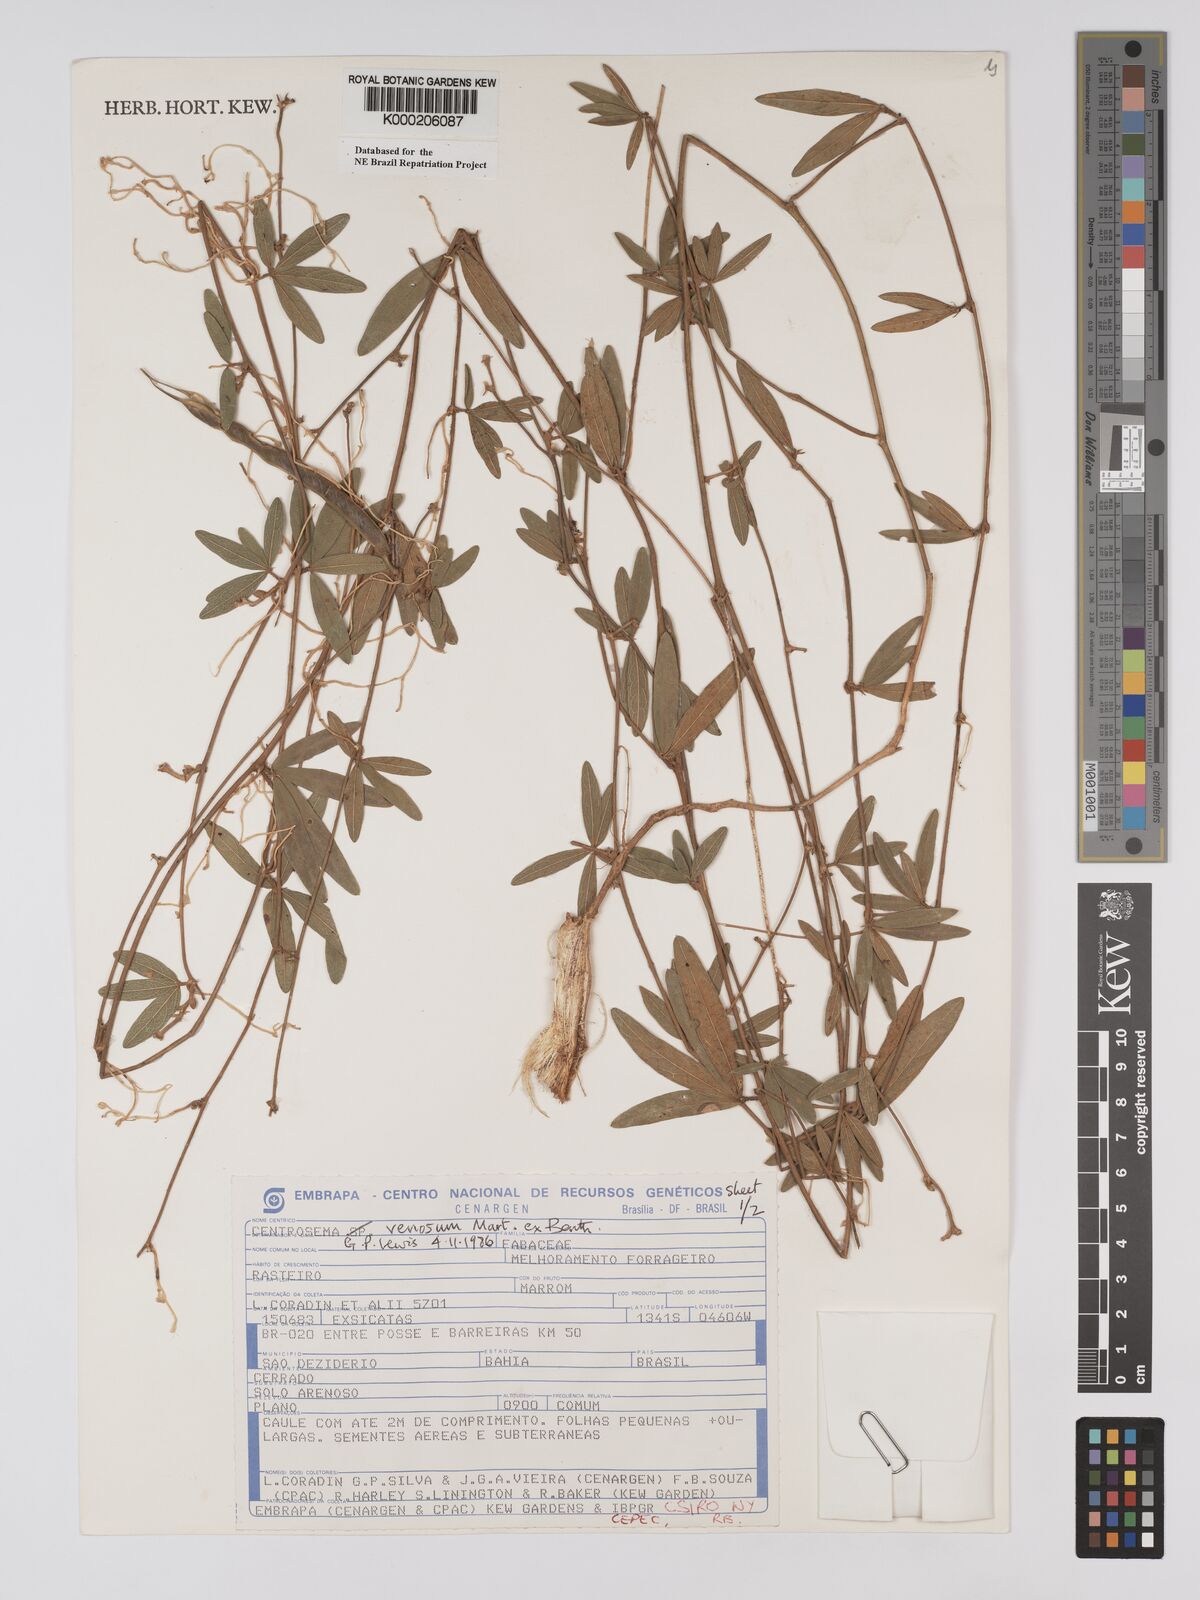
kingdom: Plantae
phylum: Tracheophyta
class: Magnoliopsida
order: Fabales
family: Fabaceae
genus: Centrosema
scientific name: Centrosema venosum
